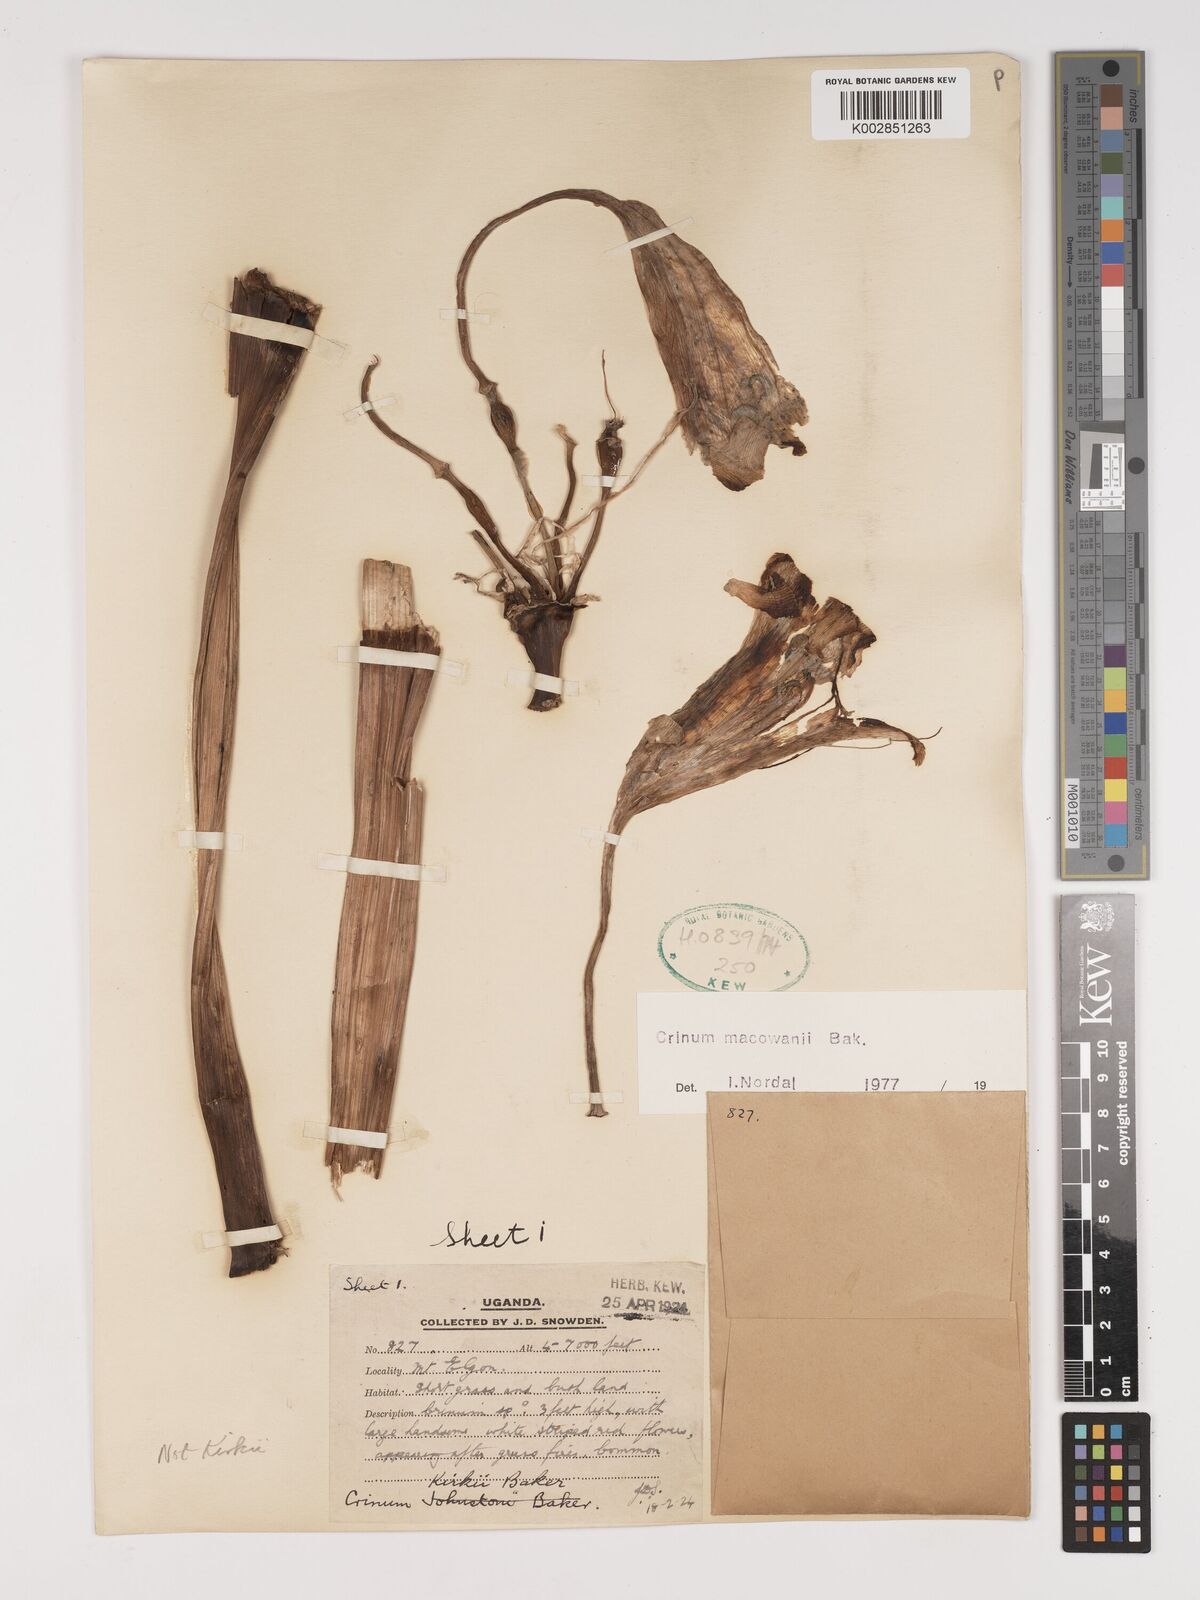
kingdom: Plantae
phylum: Tracheophyta
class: Liliopsida
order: Asparagales
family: Amaryllidaceae
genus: Crinum
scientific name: Crinum macowanii
